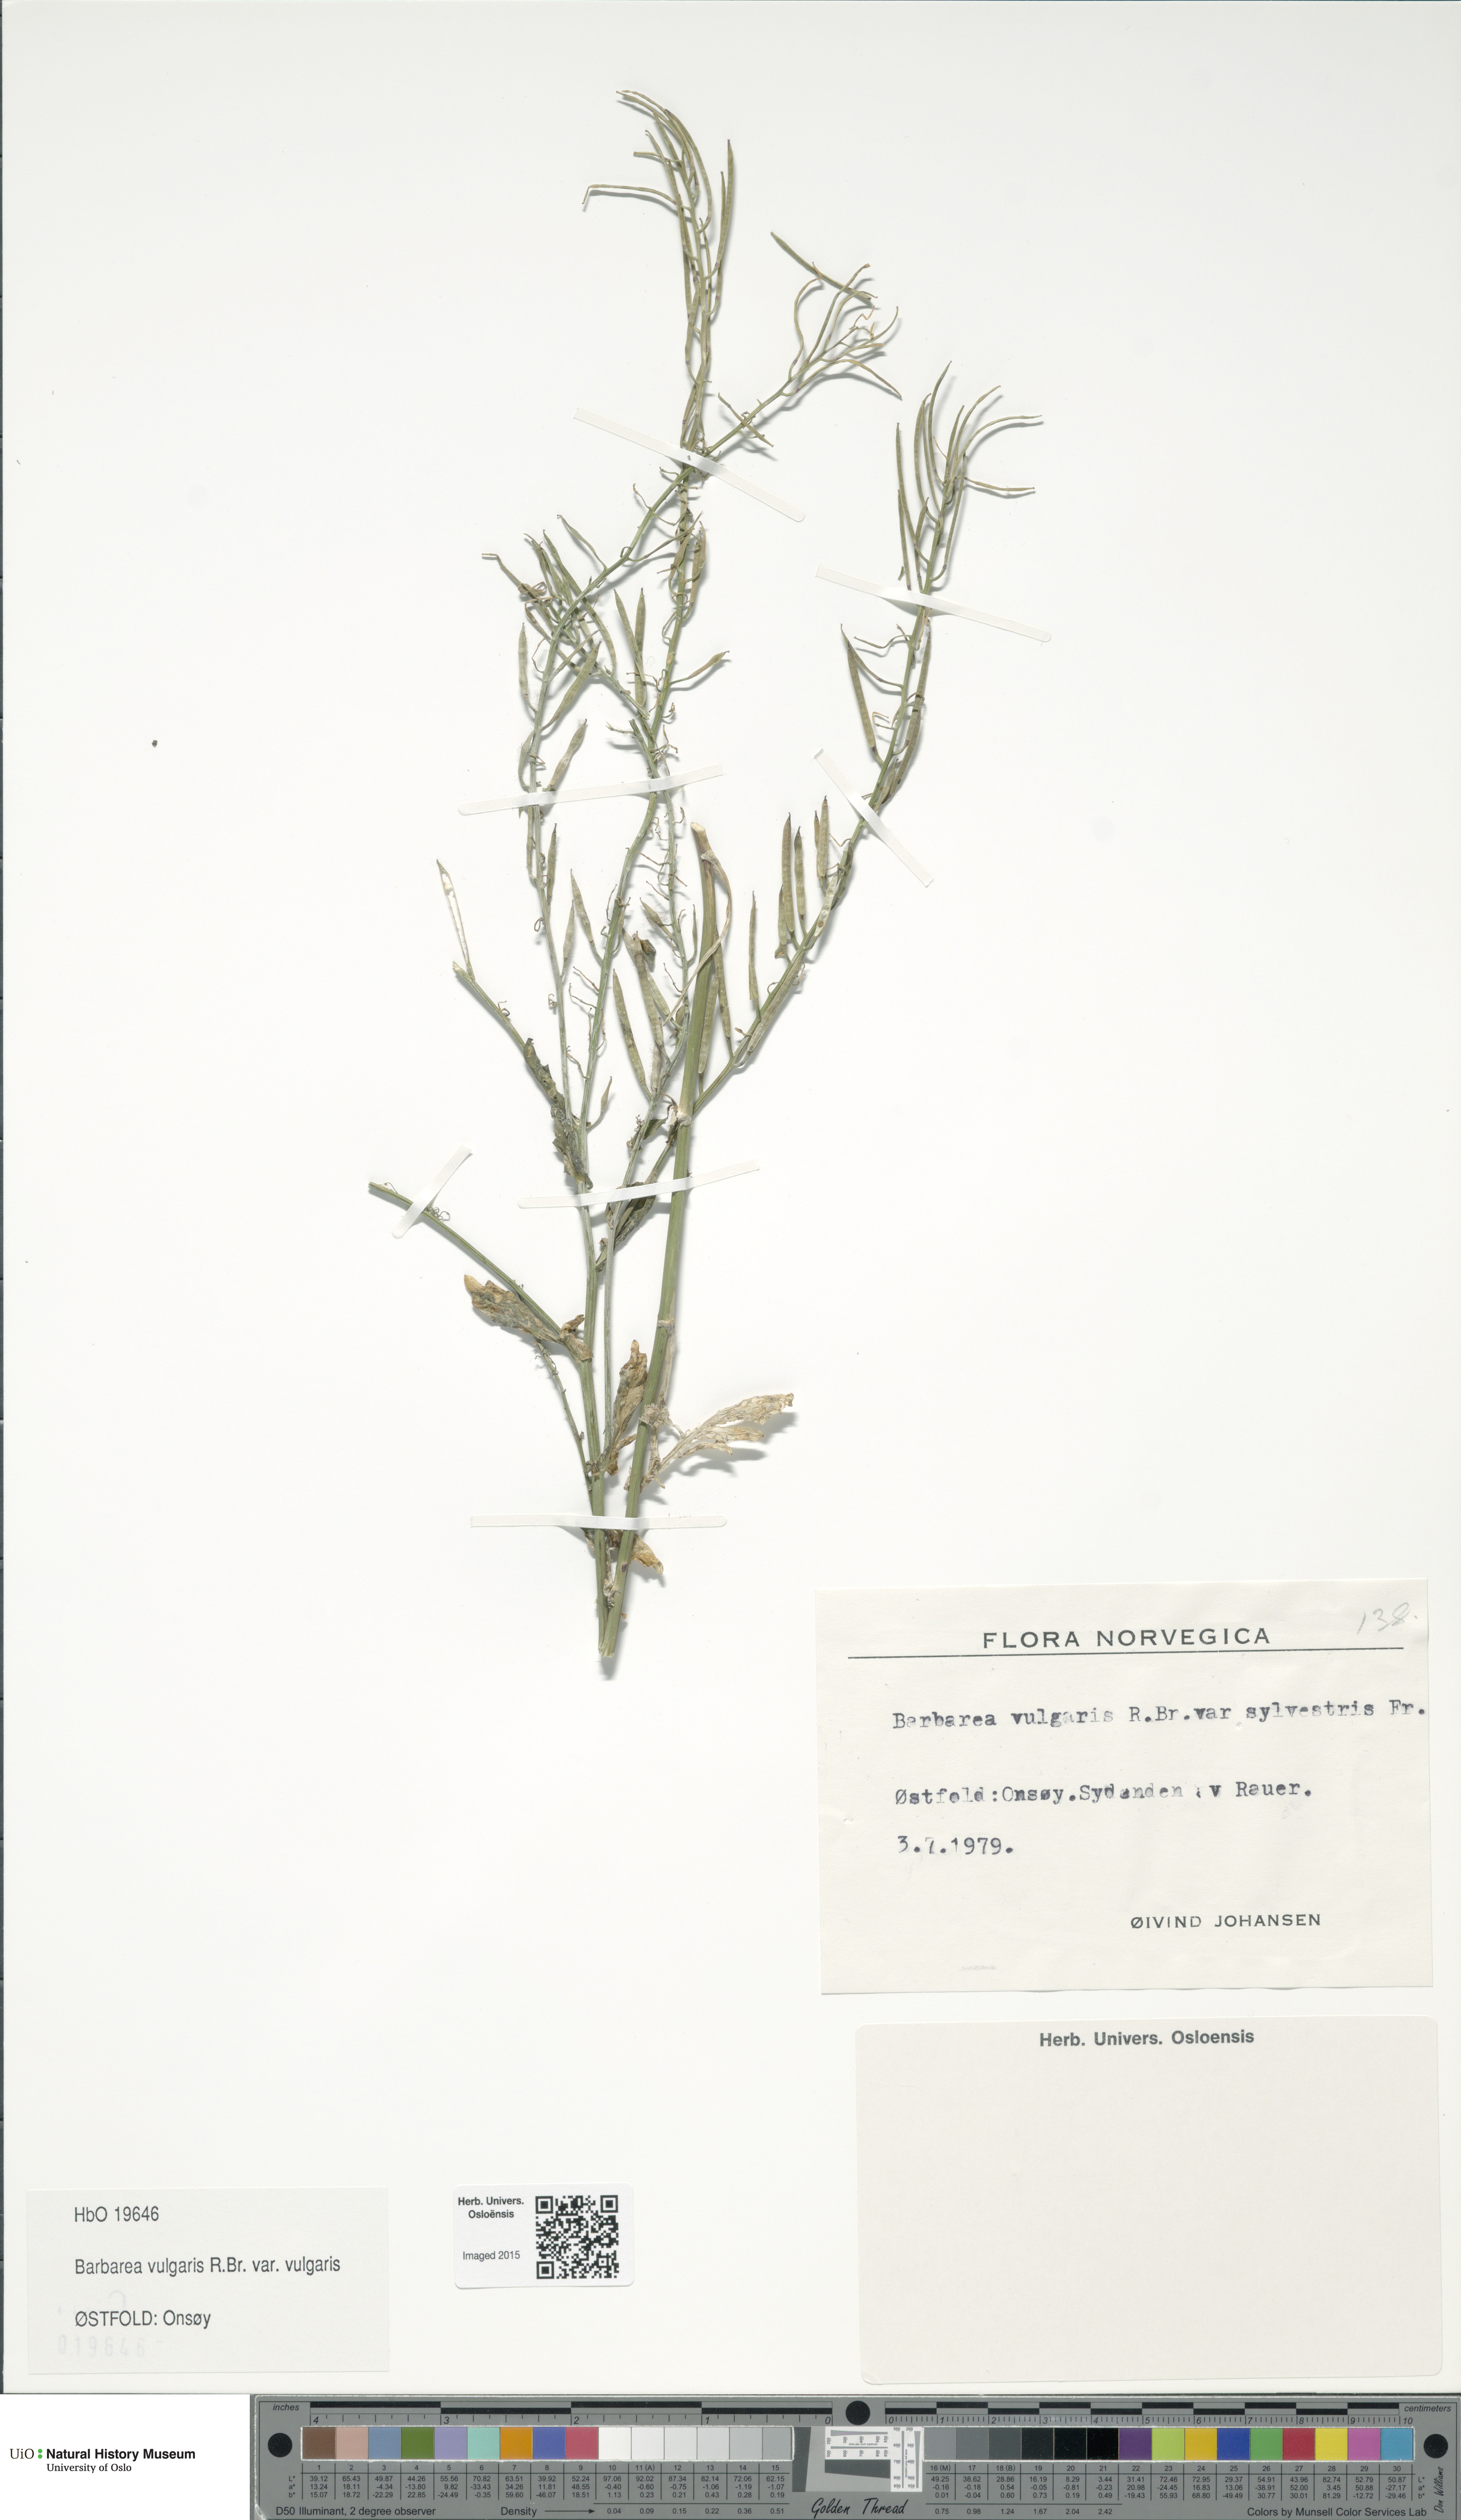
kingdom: Plantae
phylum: Tracheophyta
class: Magnoliopsida
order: Brassicales
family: Brassicaceae
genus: Barbarea
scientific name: Barbarea vulgaris
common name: Cressy-greens
